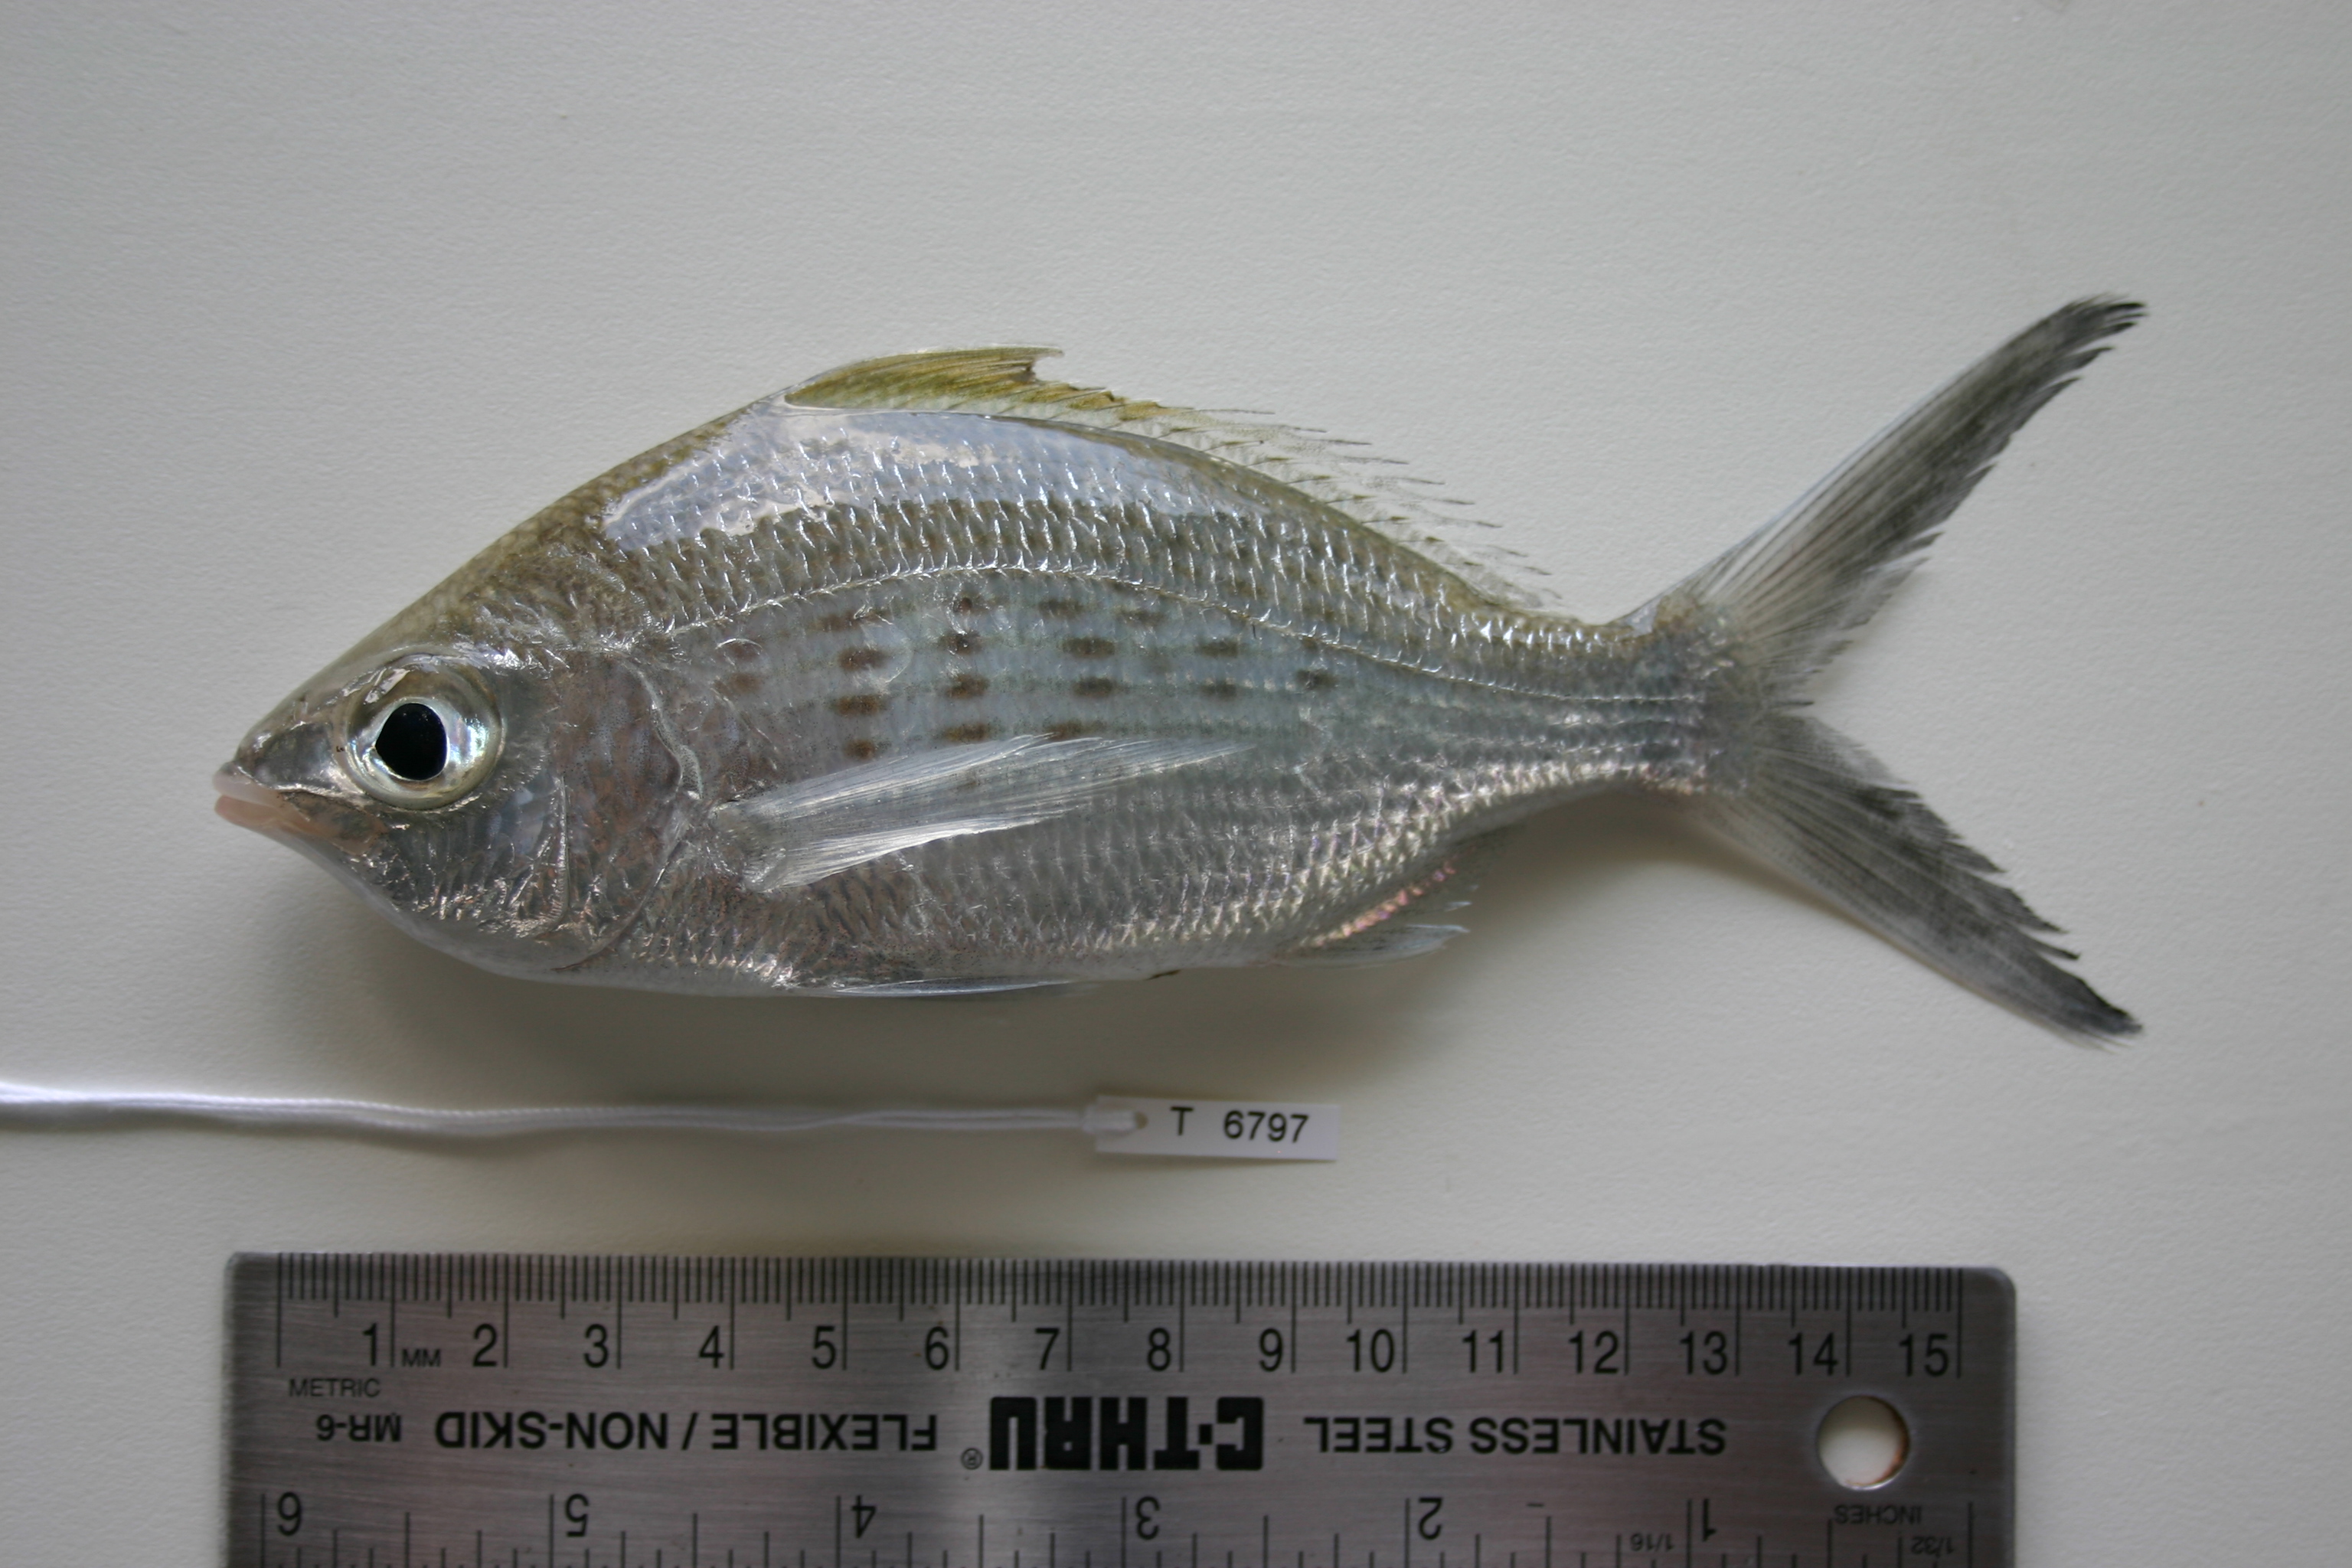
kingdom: Animalia
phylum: Chordata
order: Perciformes
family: Gerreidae
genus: Gerres
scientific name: Gerres longirostris
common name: Strongspine silver-biddy
